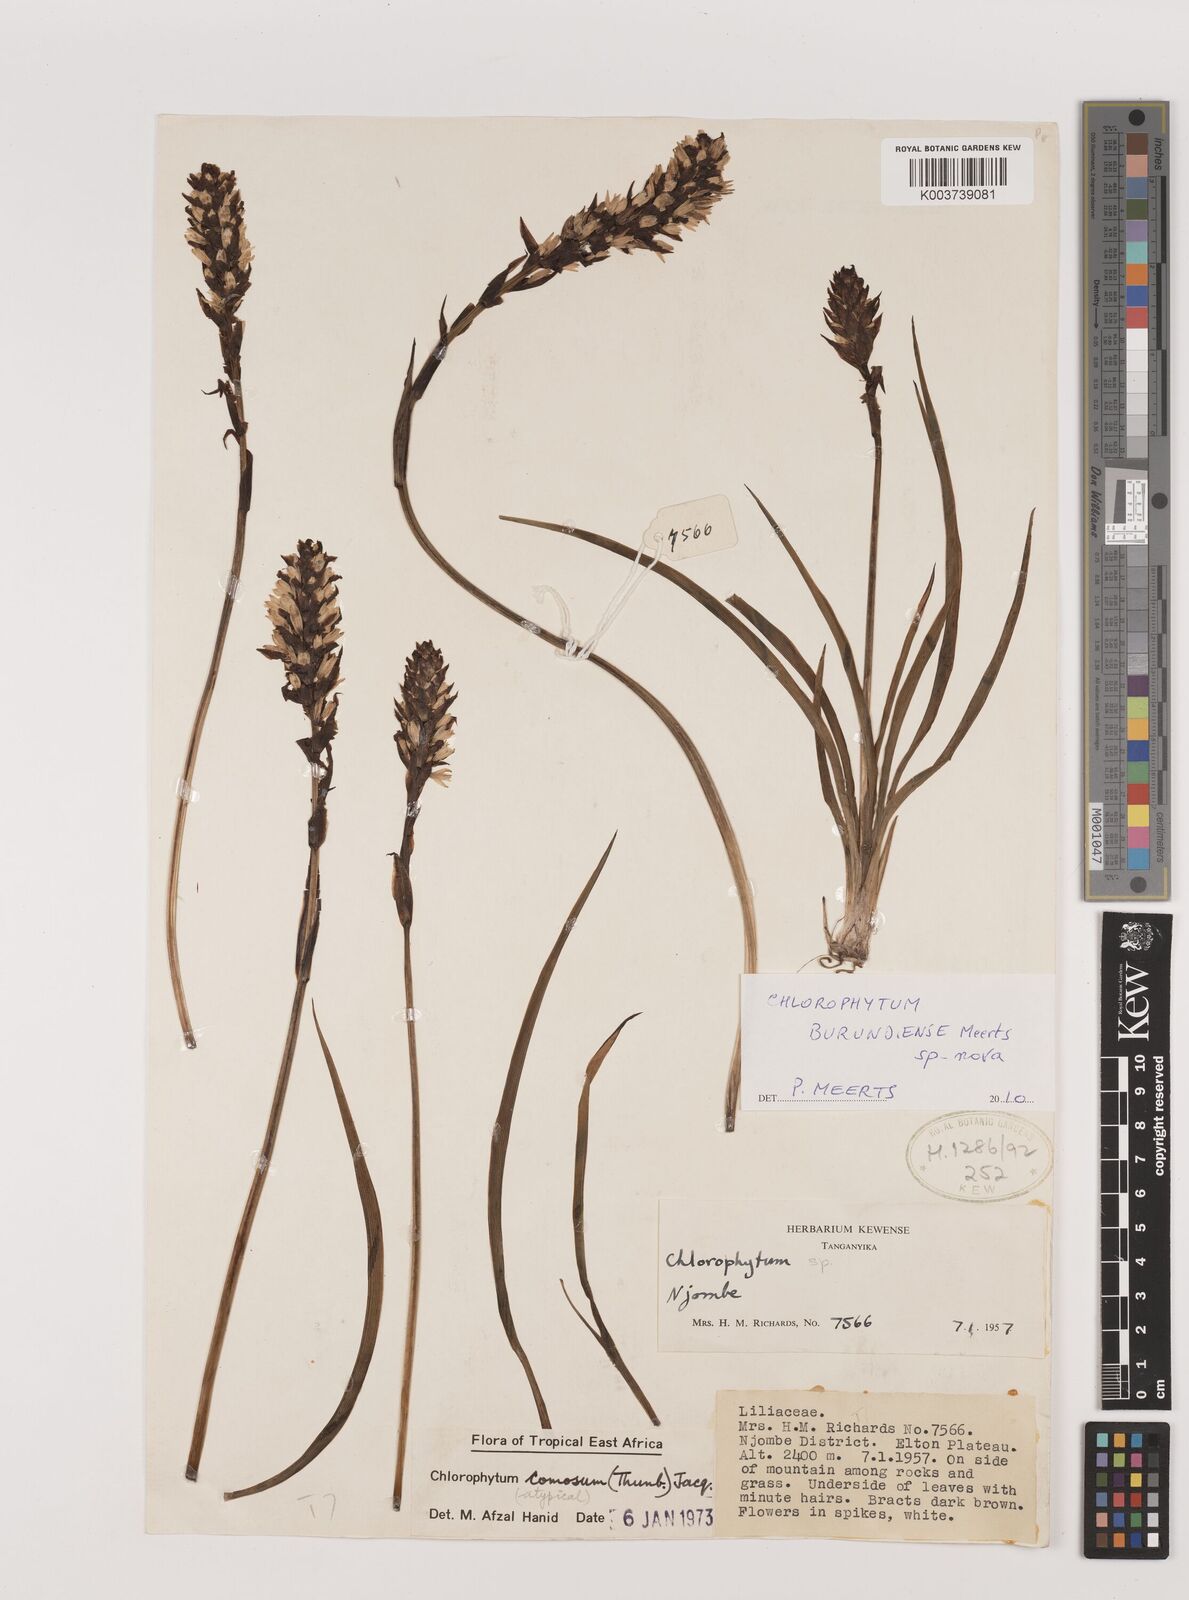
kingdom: Plantae
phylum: Tracheophyta
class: Liliopsida
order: Asparagales
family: Asparagaceae
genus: Chlorophytum
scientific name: Chlorophytum burundiense
